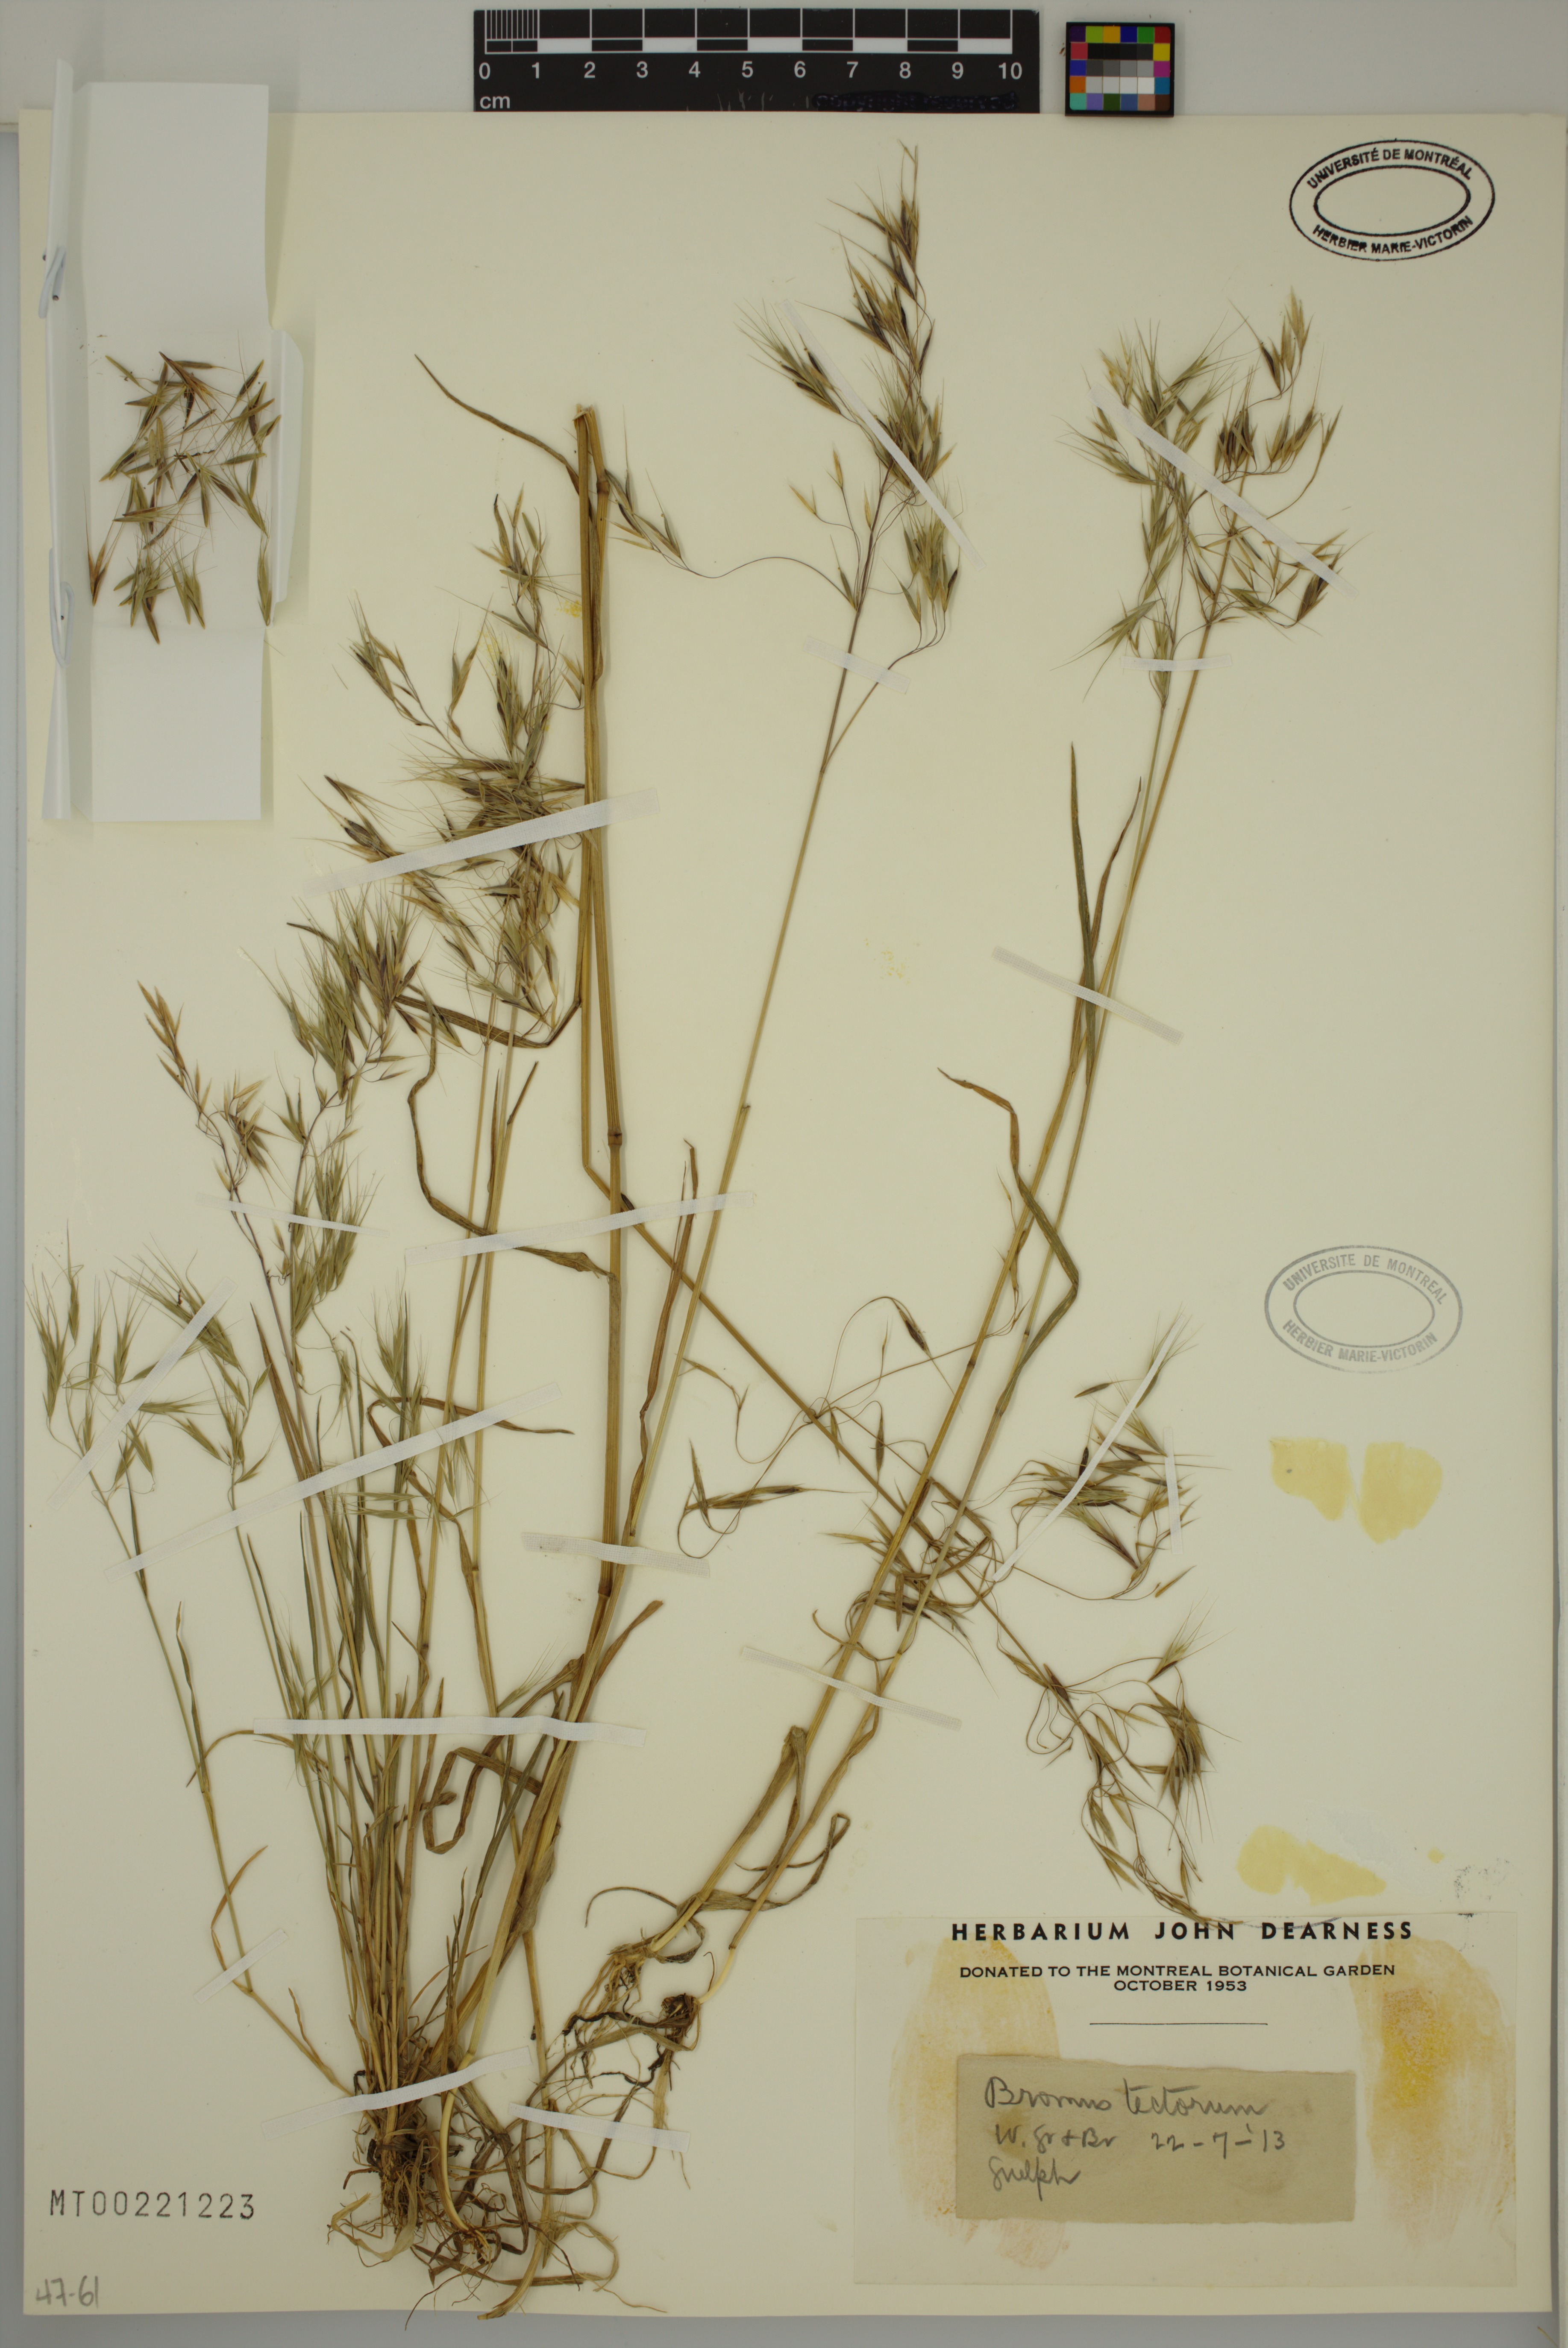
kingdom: Plantae
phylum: Tracheophyta
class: Liliopsida
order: Poales
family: Poaceae
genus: Bromus
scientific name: Bromus tectorum
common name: Cheatgrass
